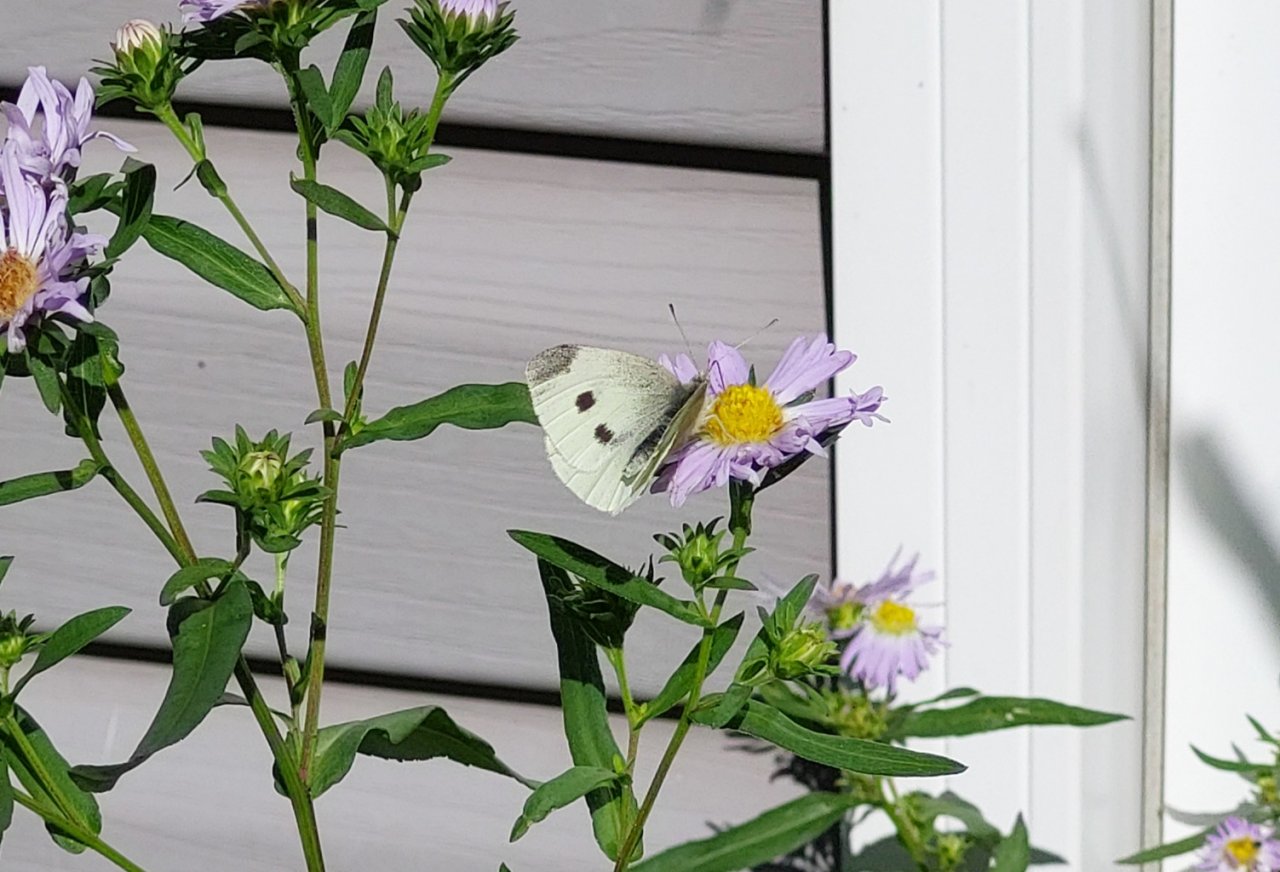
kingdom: Animalia
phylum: Arthropoda
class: Insecta
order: Lepidoptera
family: Pieridae
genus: Pieris
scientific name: Pieris rapae
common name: Cabbage White
